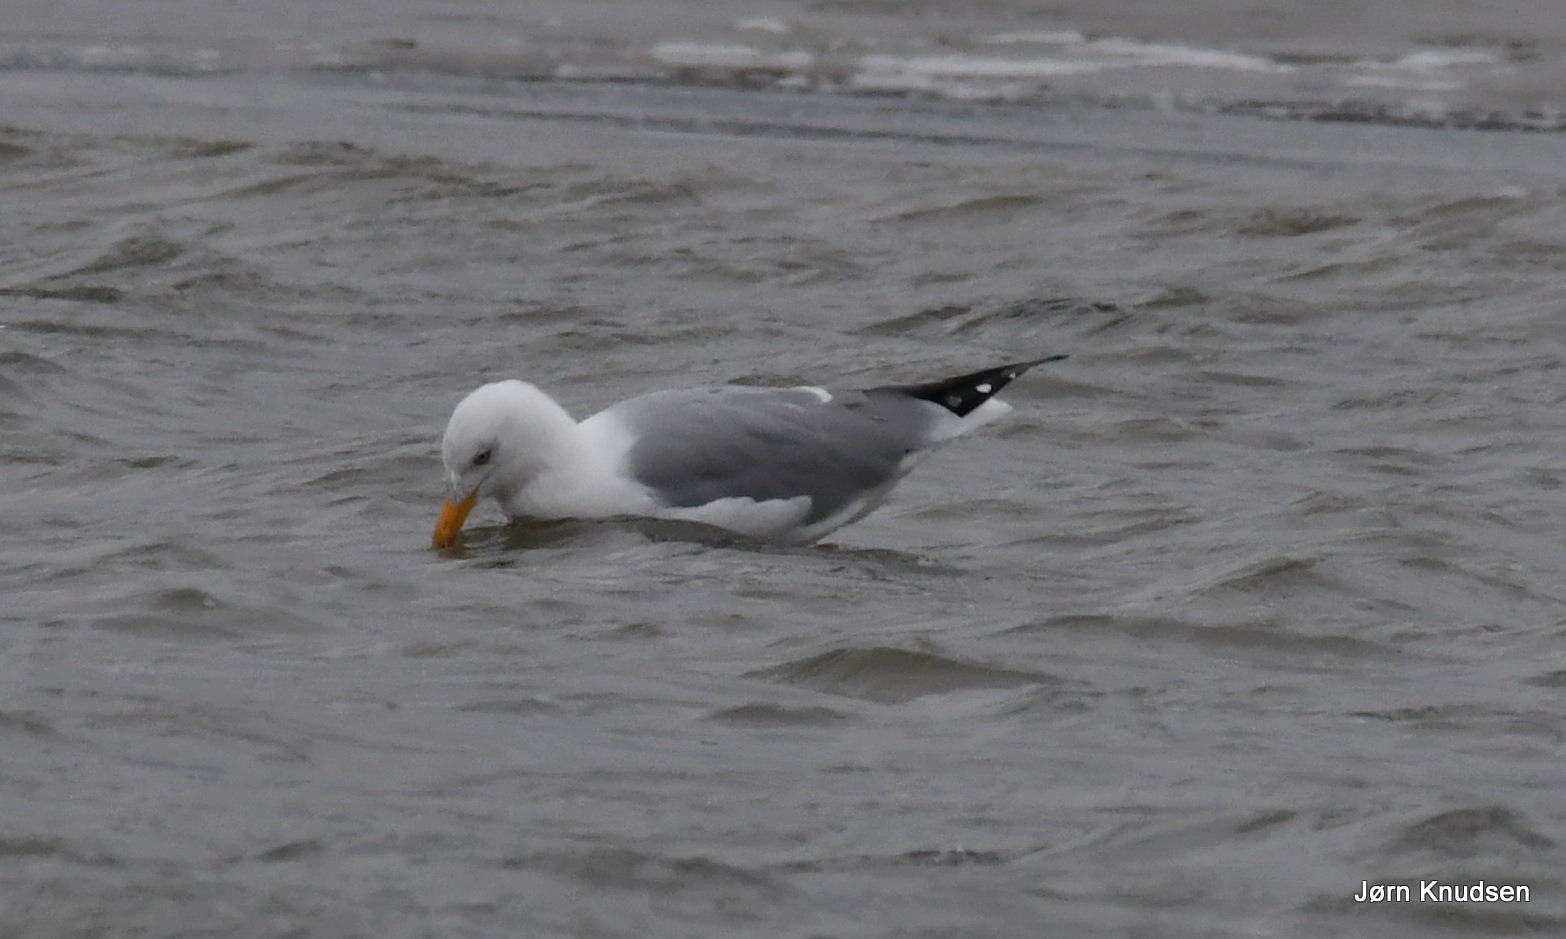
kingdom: Animalia
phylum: Chordata
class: Aves
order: Charadriiformes
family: Laridae
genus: Larus
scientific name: Larus argentatus
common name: Sølvmåge
